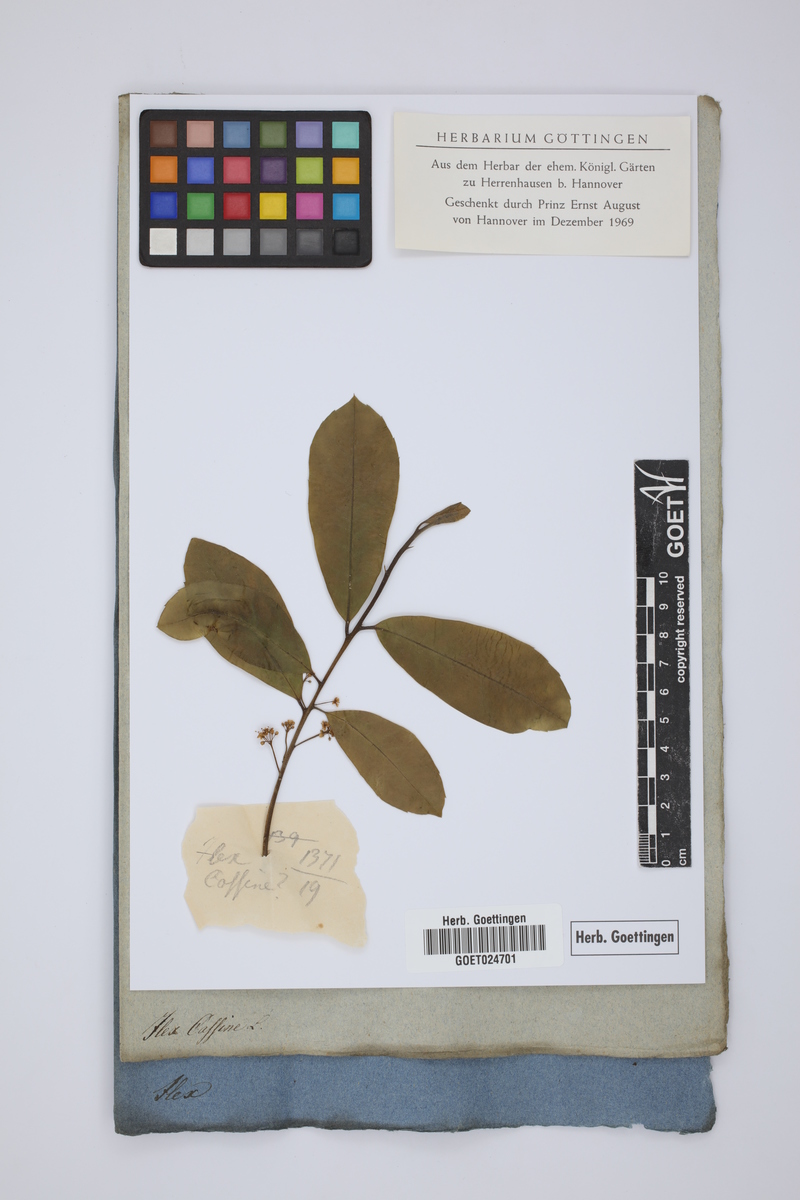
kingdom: Plantae
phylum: Tracheophyta
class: Magnoliopsida
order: Aquifoliales
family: Aquifoliaceae
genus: Ilex
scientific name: Ilex cassine
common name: Dahoon
